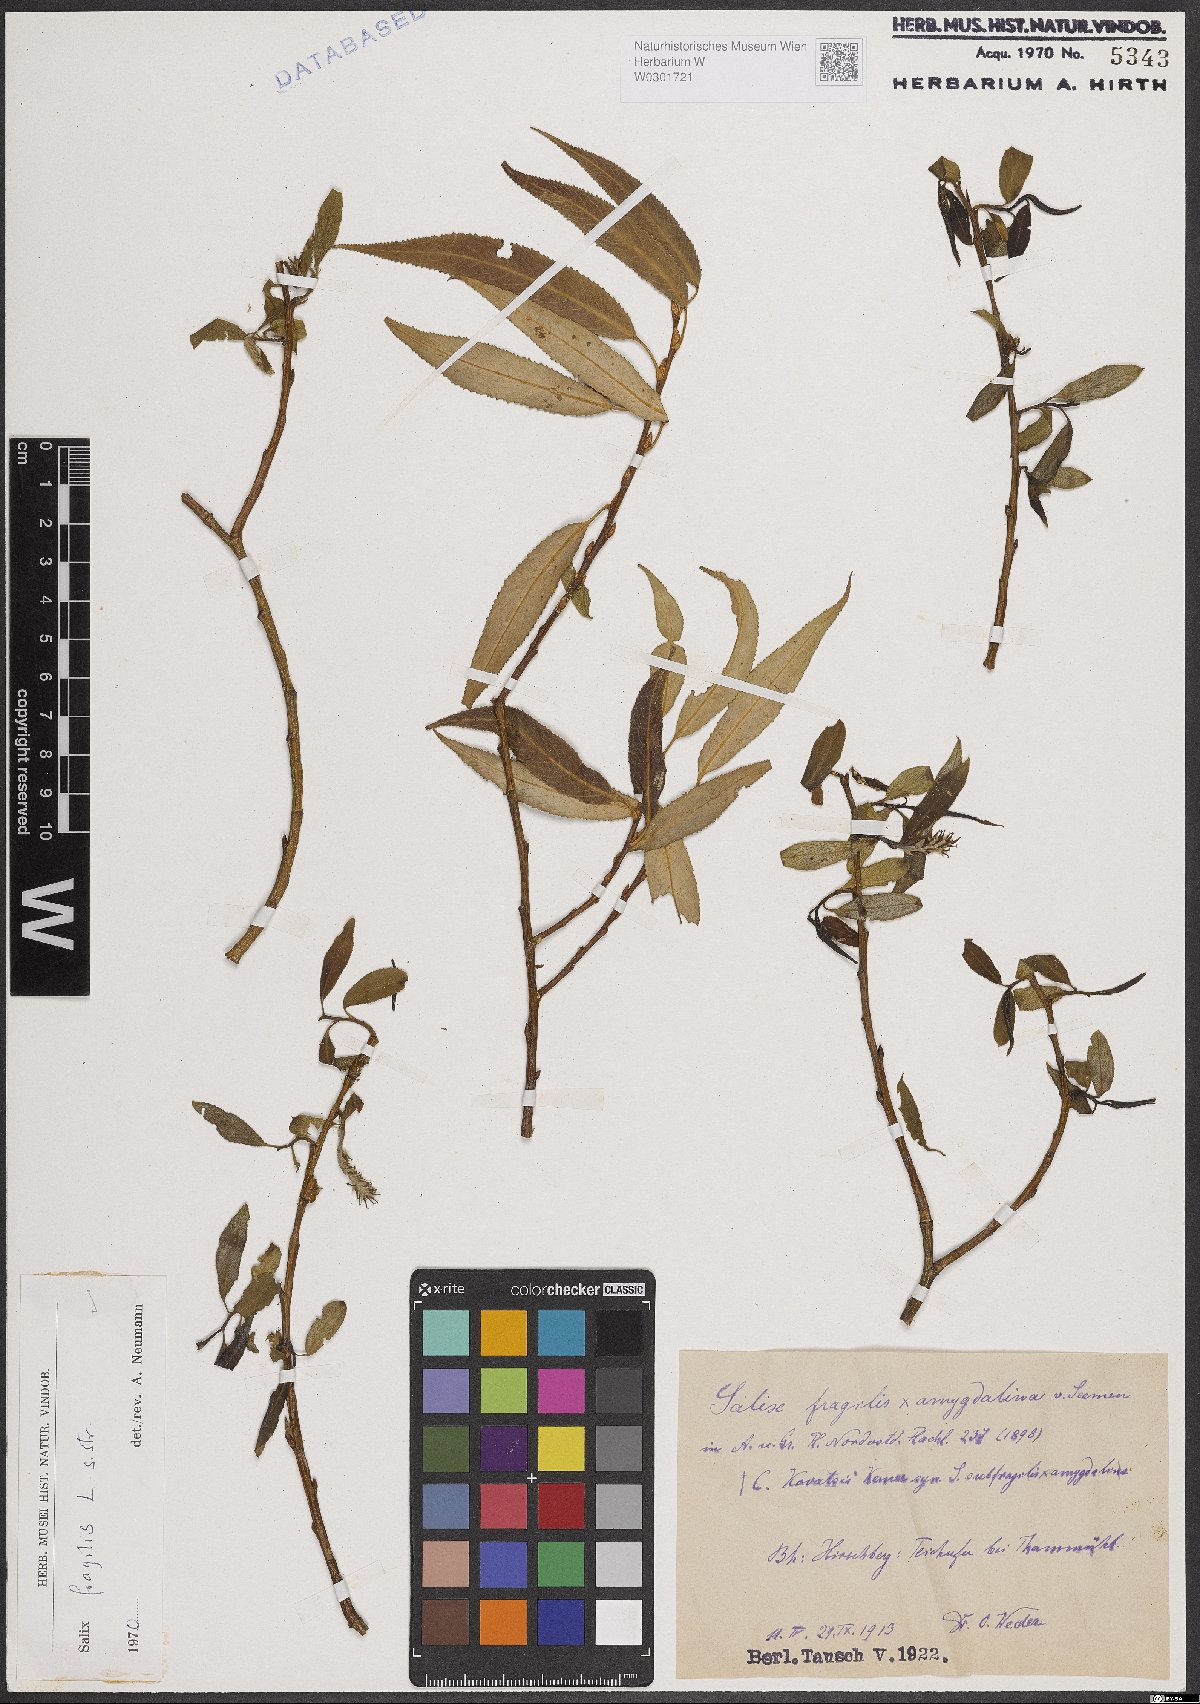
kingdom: Plantae
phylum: Tracheophyta
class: Magnoliopsida
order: Malpighiales
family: Salicaceae
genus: Salix
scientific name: Salix fragilis
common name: Crack willow
